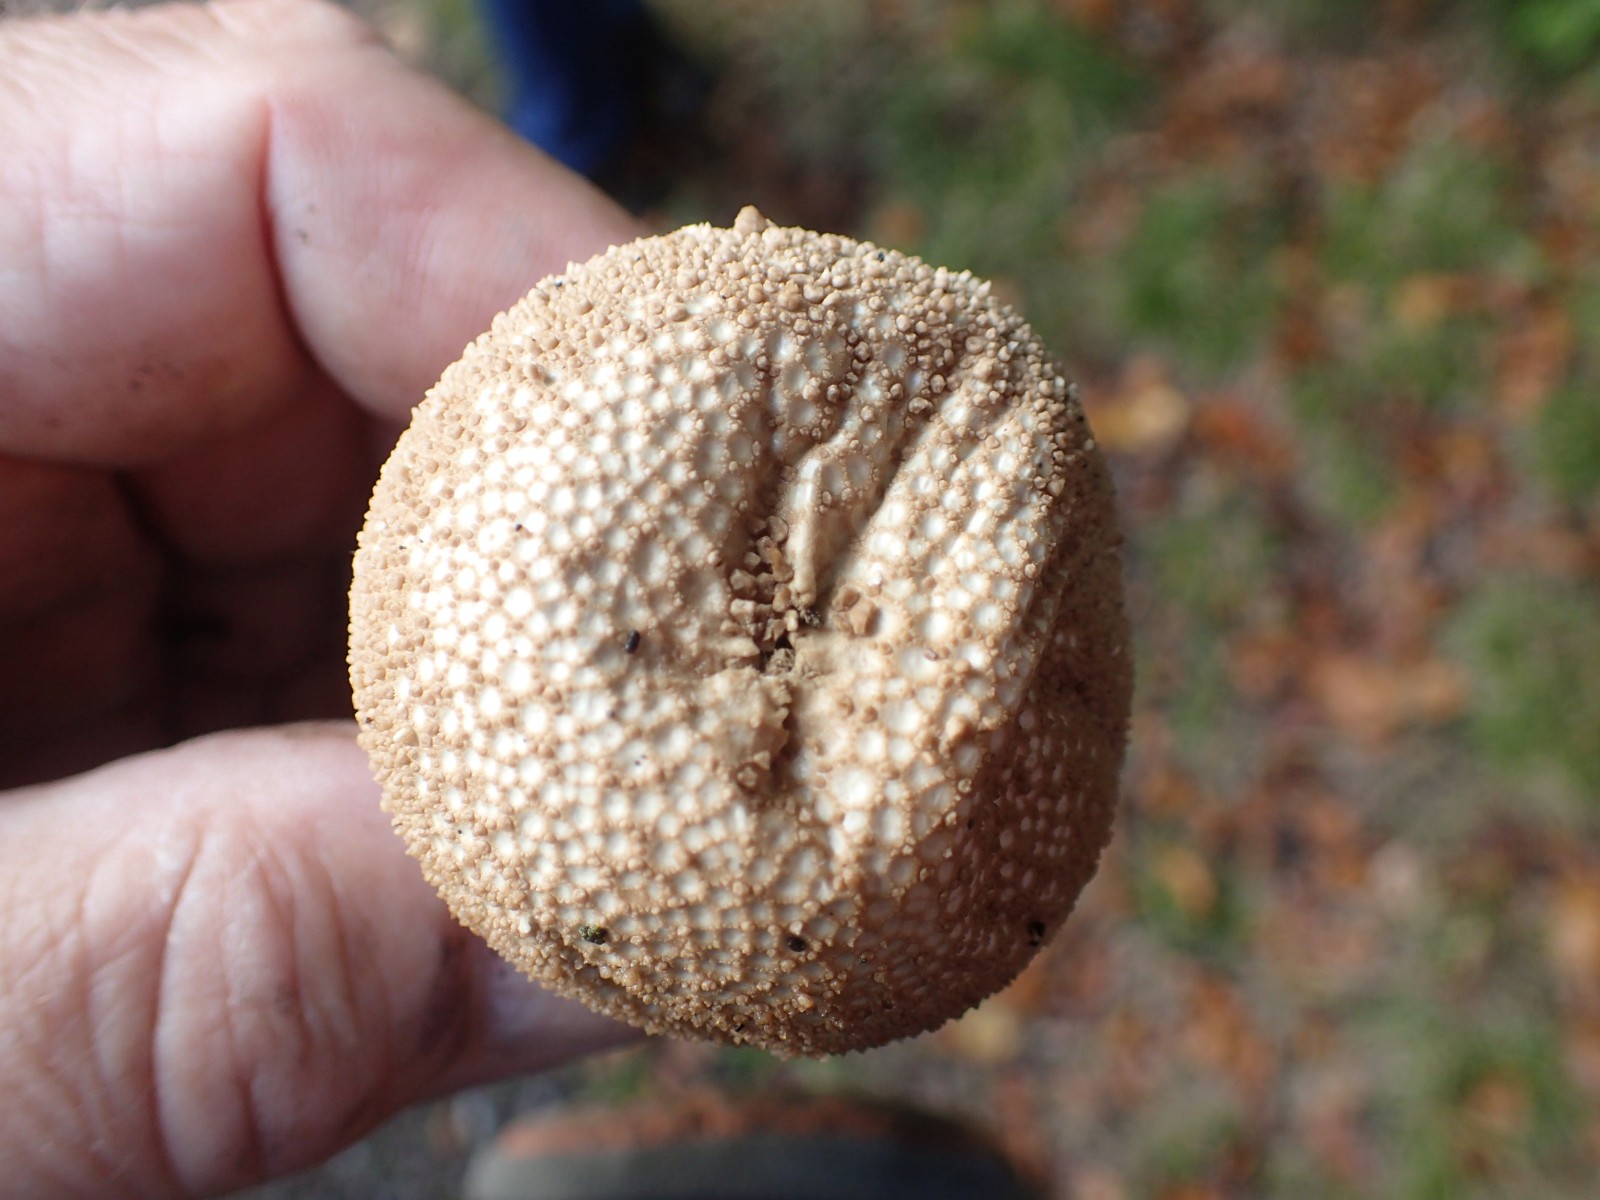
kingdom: Fungi
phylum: Basidiomycota
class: Agaricomycetes
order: Agaricales
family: Lycoperdaceae
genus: Lycoperdon
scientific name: Lycoperdon nigrescens
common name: sortagtig støvbold
